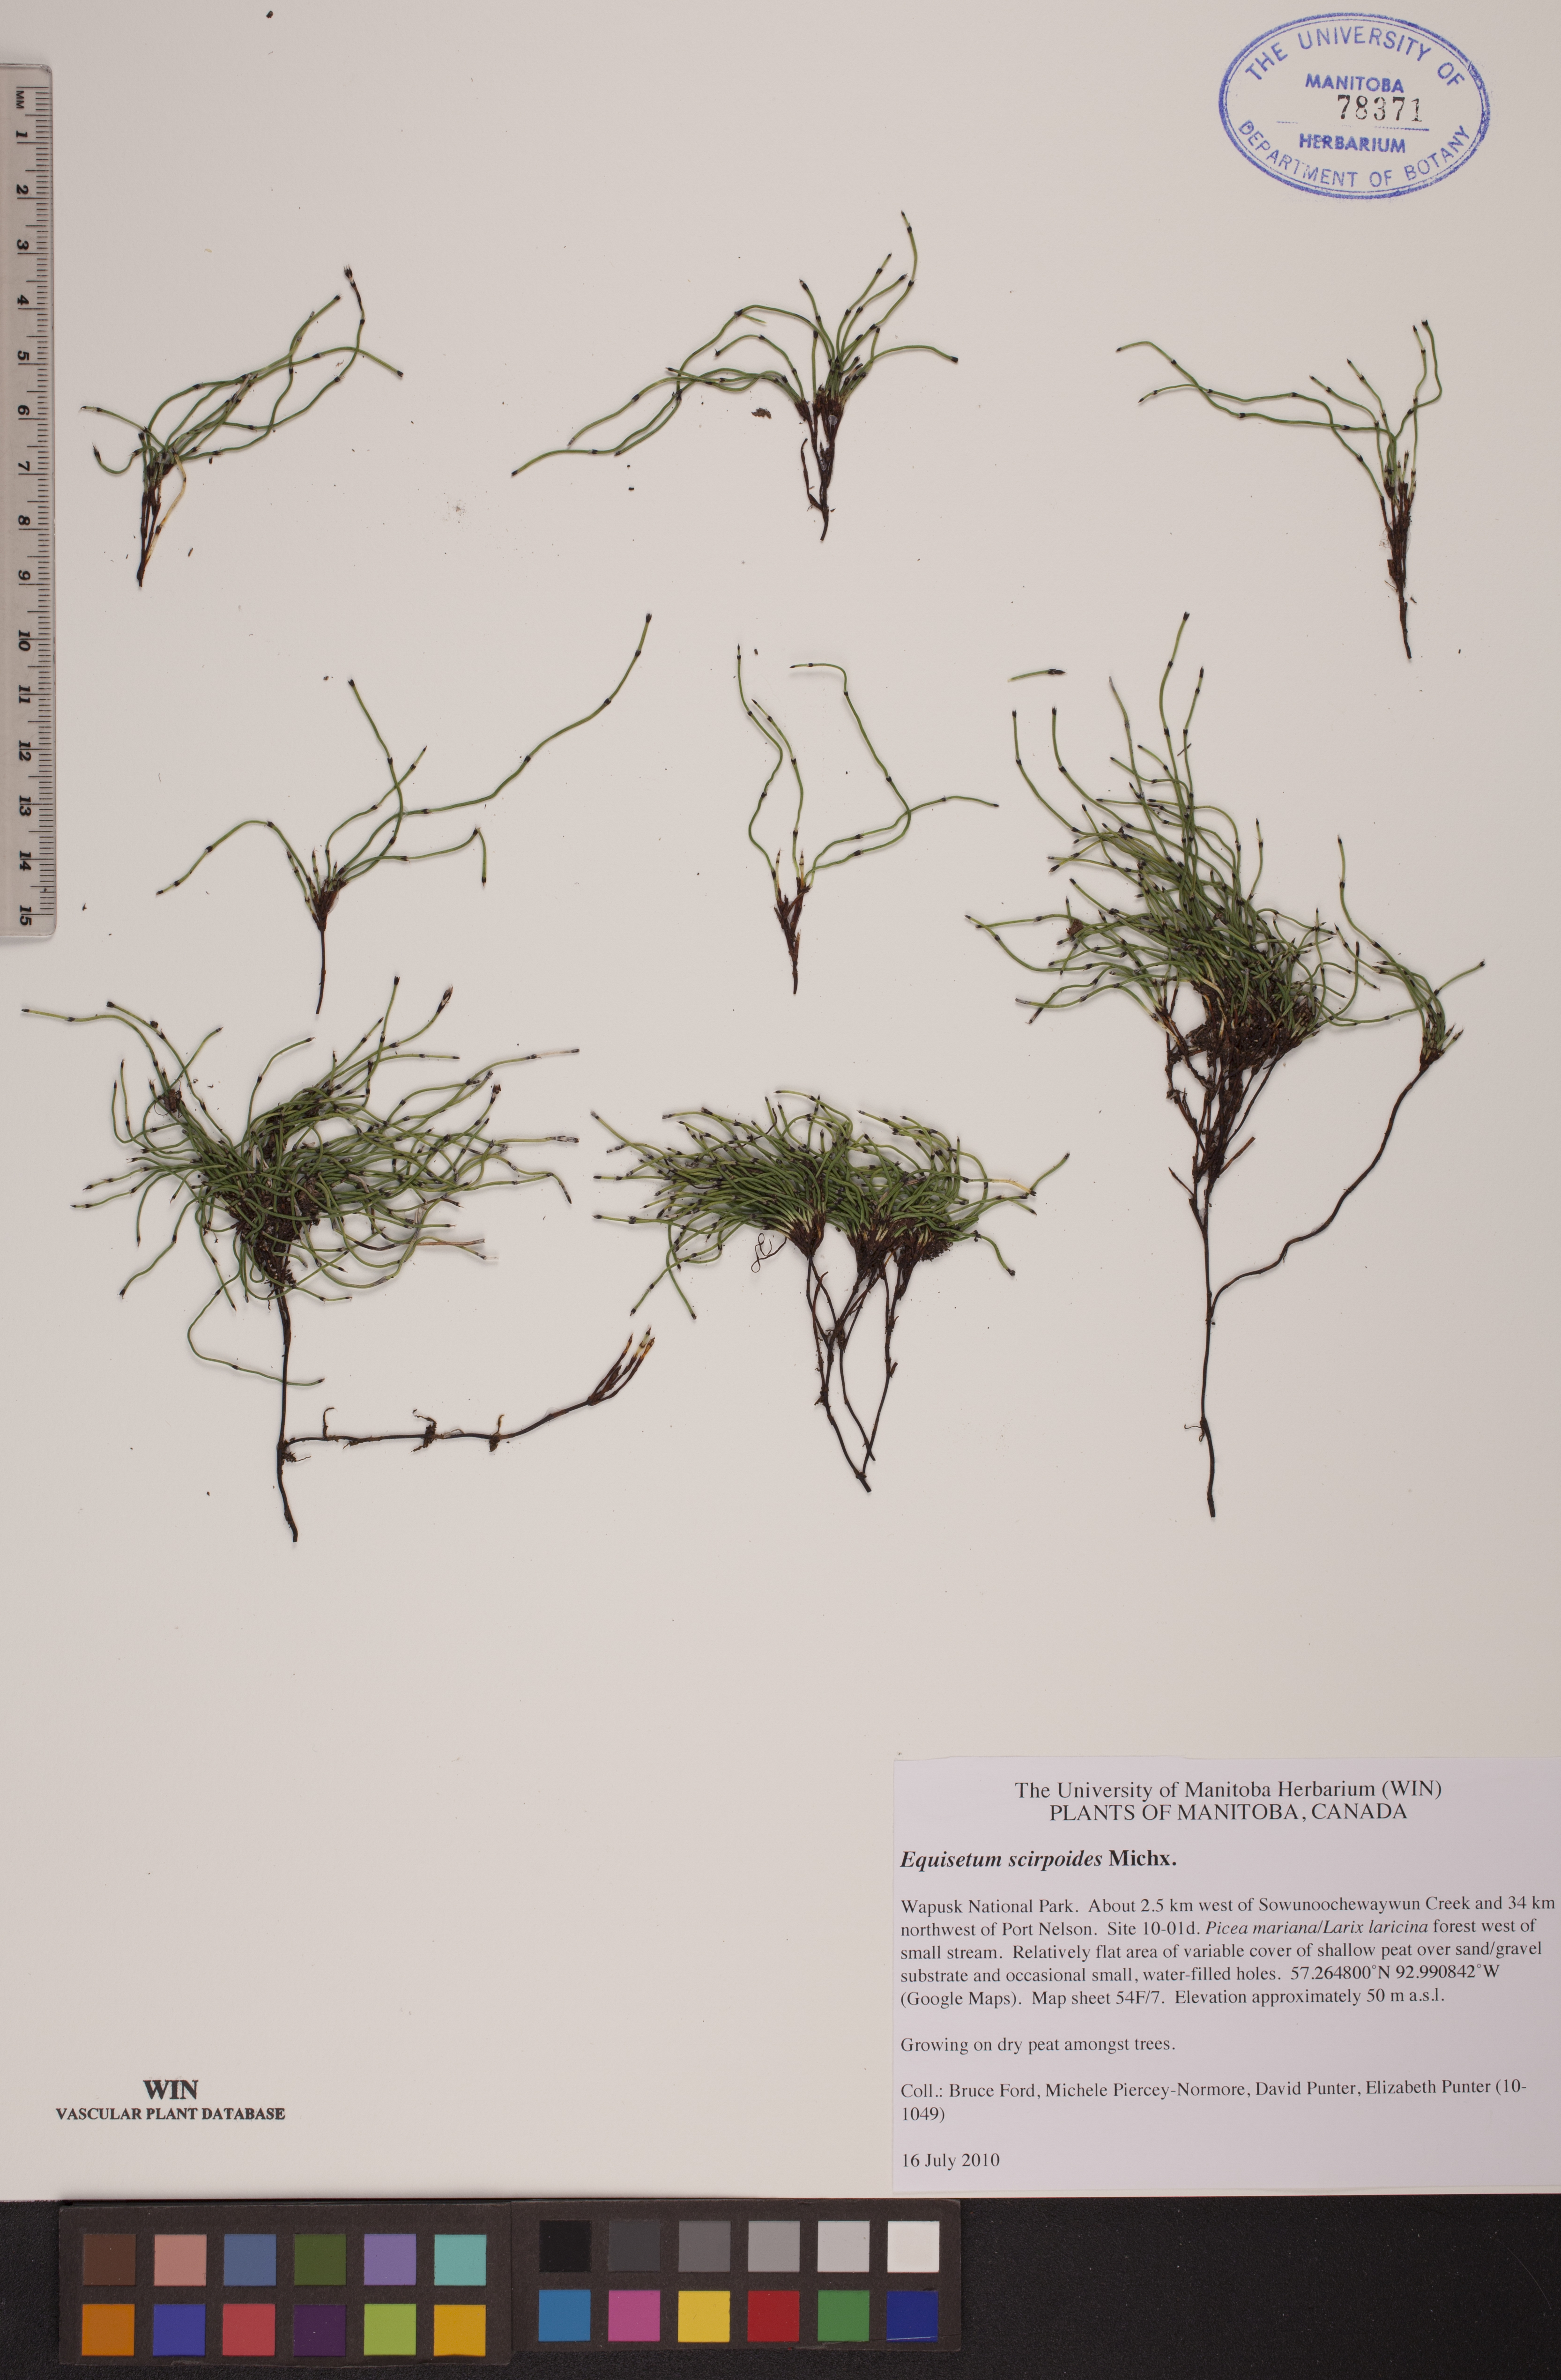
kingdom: Plantae
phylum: Tracheophyta
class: Polypodiopsida
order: Equisetales
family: Equisetaceae
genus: Equisetum
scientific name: Equisetum scirpoides
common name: Delicate horsetail
